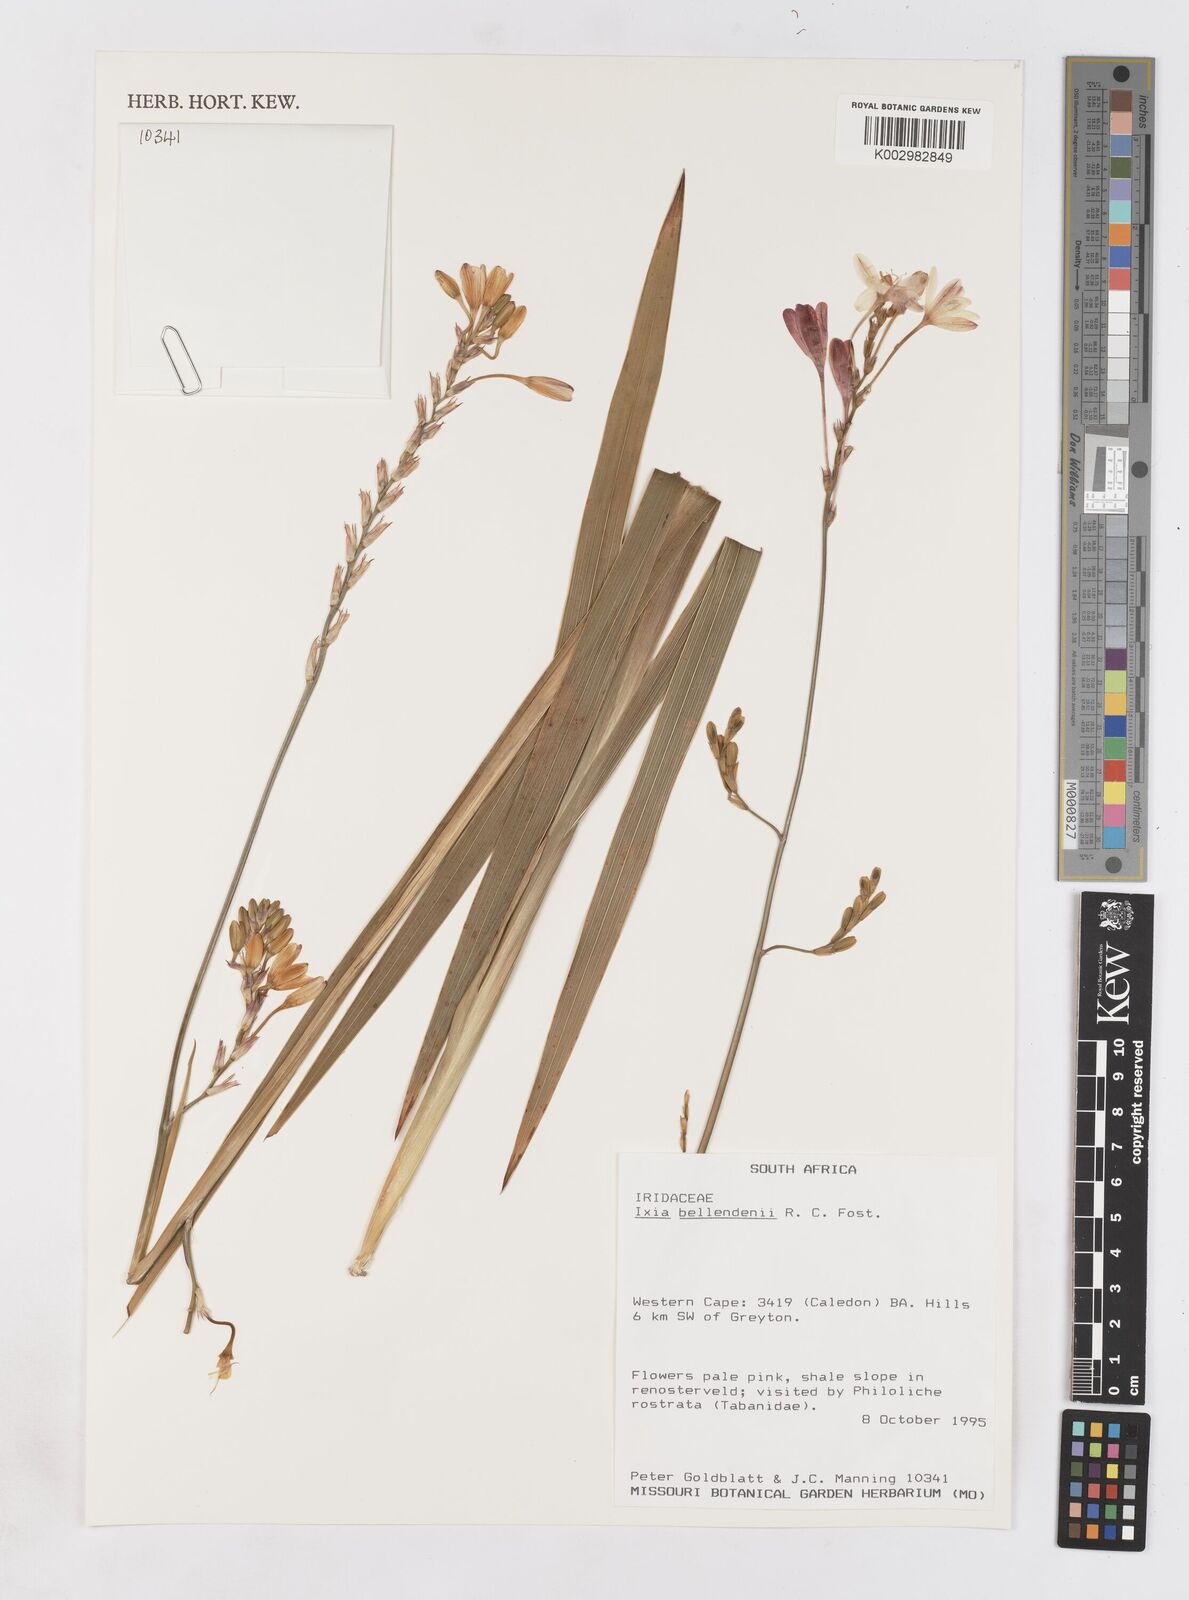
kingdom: Plantae
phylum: Tracheophyta
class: Liliopsida
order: Asparagales
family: Iridaceae
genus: Ixia
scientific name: Ixia bellendenii
